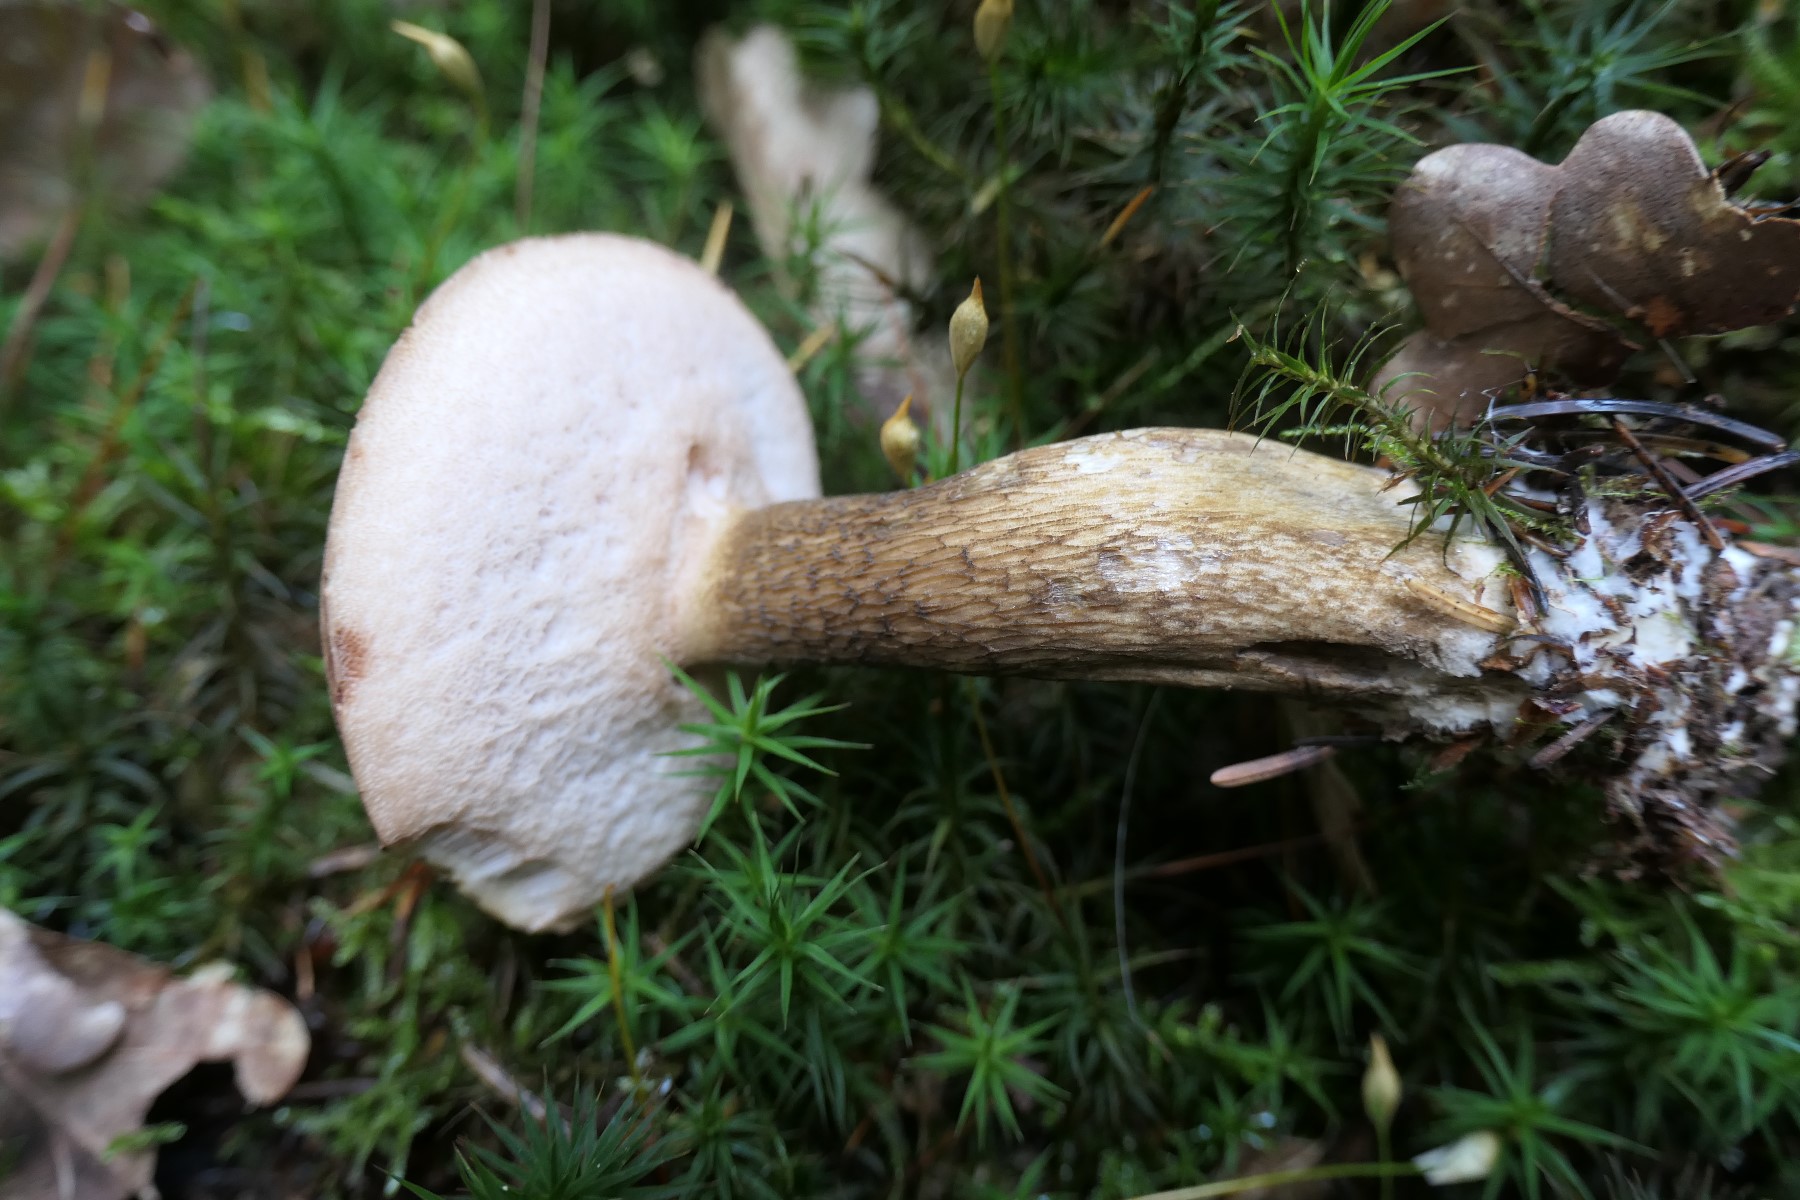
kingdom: Fungi
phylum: Basidiomycota
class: Agaricomycetes
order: Boletales
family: Boletaceae
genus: Tylopilus
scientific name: Tylopilus felleus
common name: galderørhat
